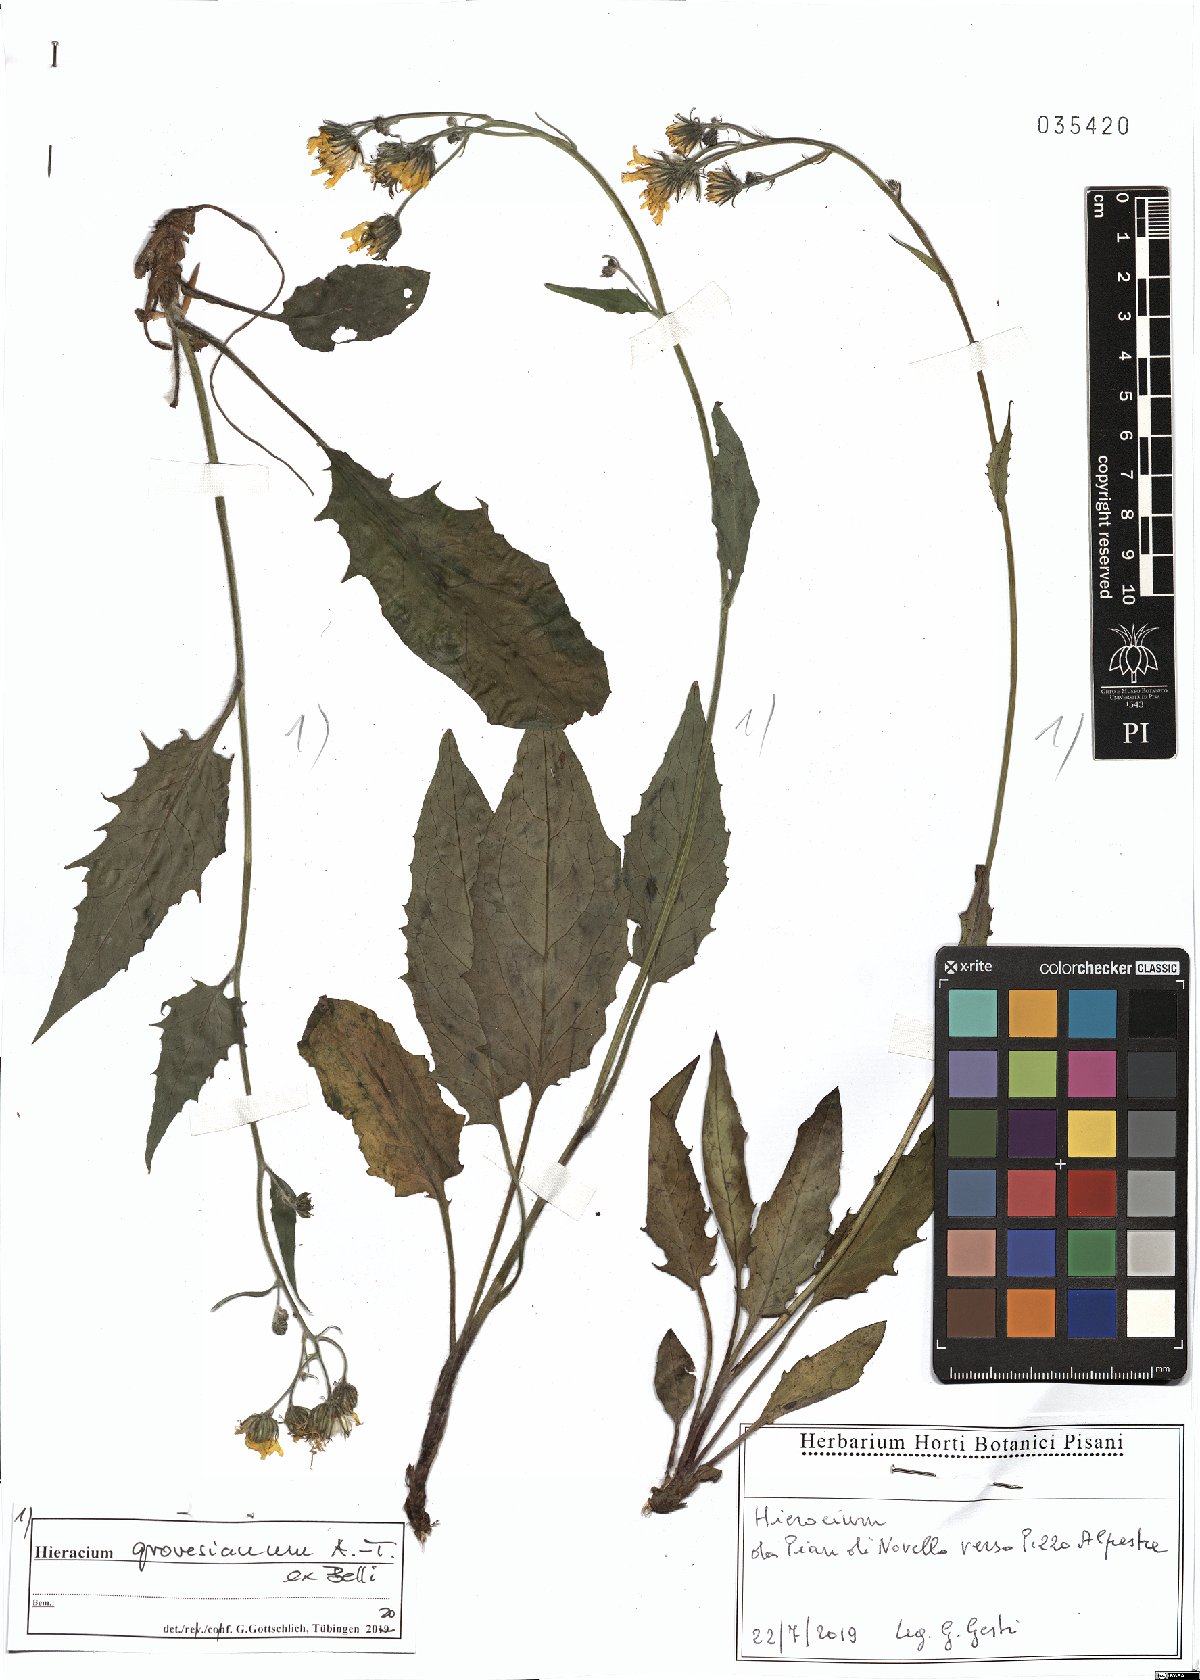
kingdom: Plantae
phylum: Tracheophyta
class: Magnoliopsida
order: Asterales
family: Asteraceae
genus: Hieracium
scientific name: Hieracium grovesianum
